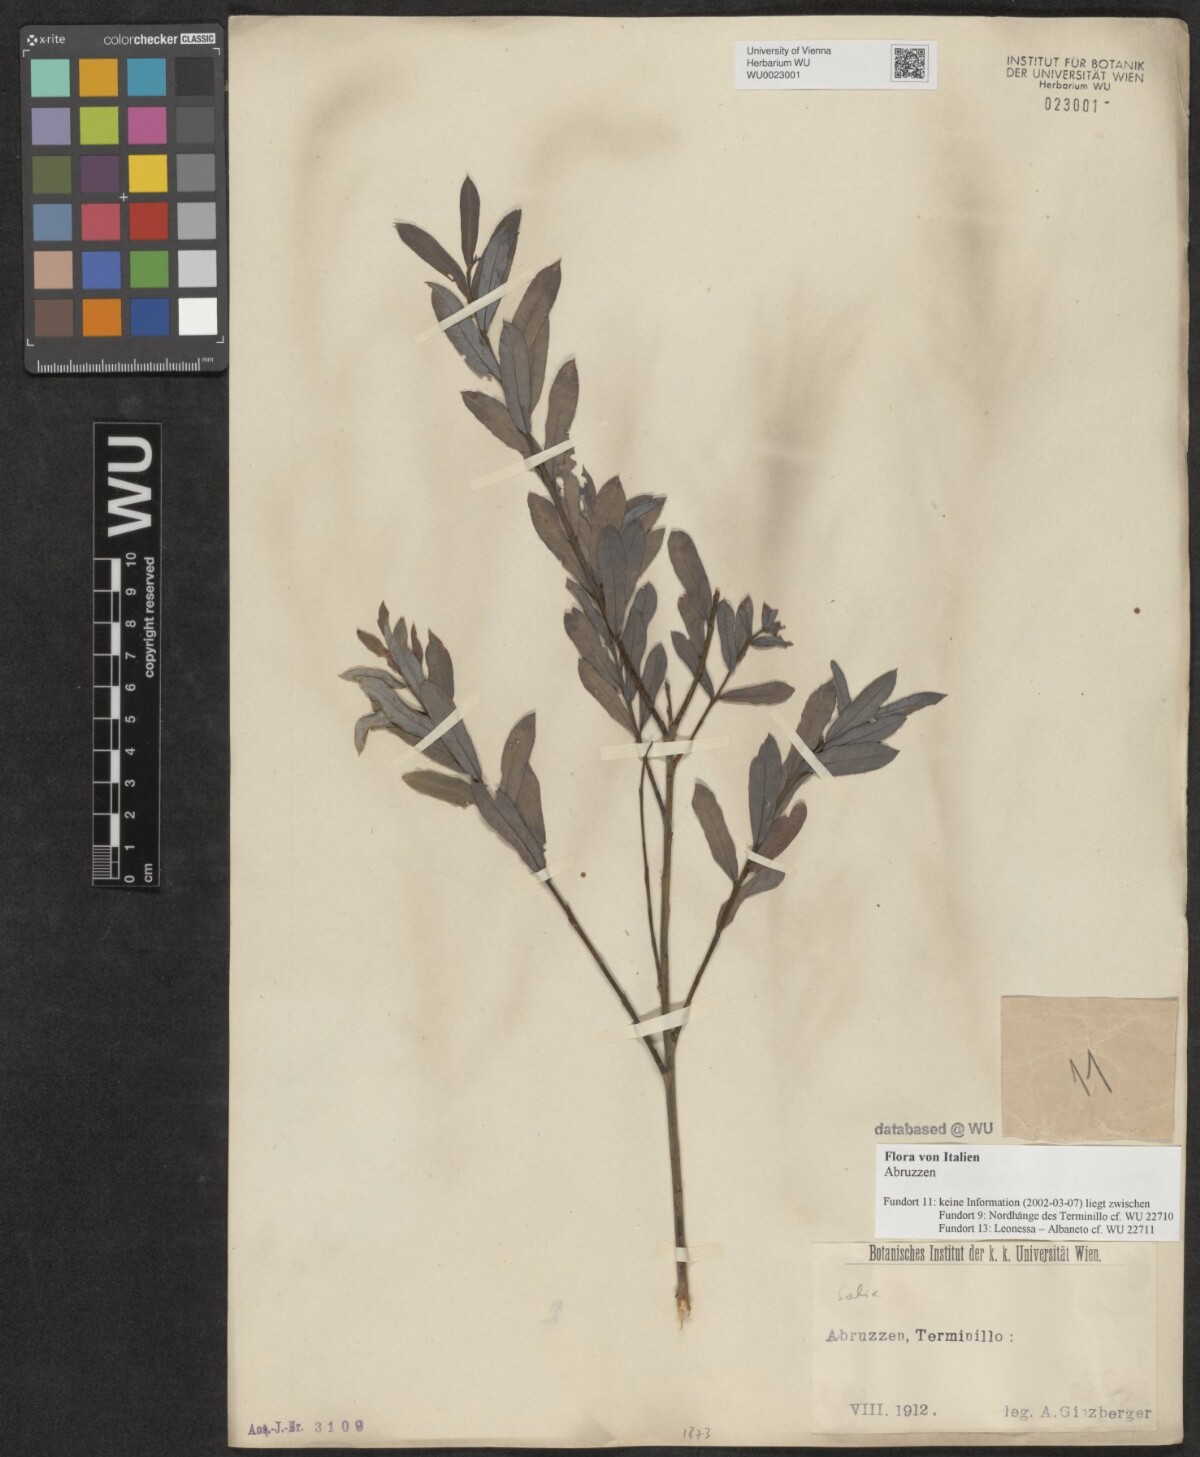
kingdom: Plantae
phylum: Tracheophyta
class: Magnoliopsida
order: Malpighiales
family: Salicaceae
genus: Salix
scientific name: Salix
